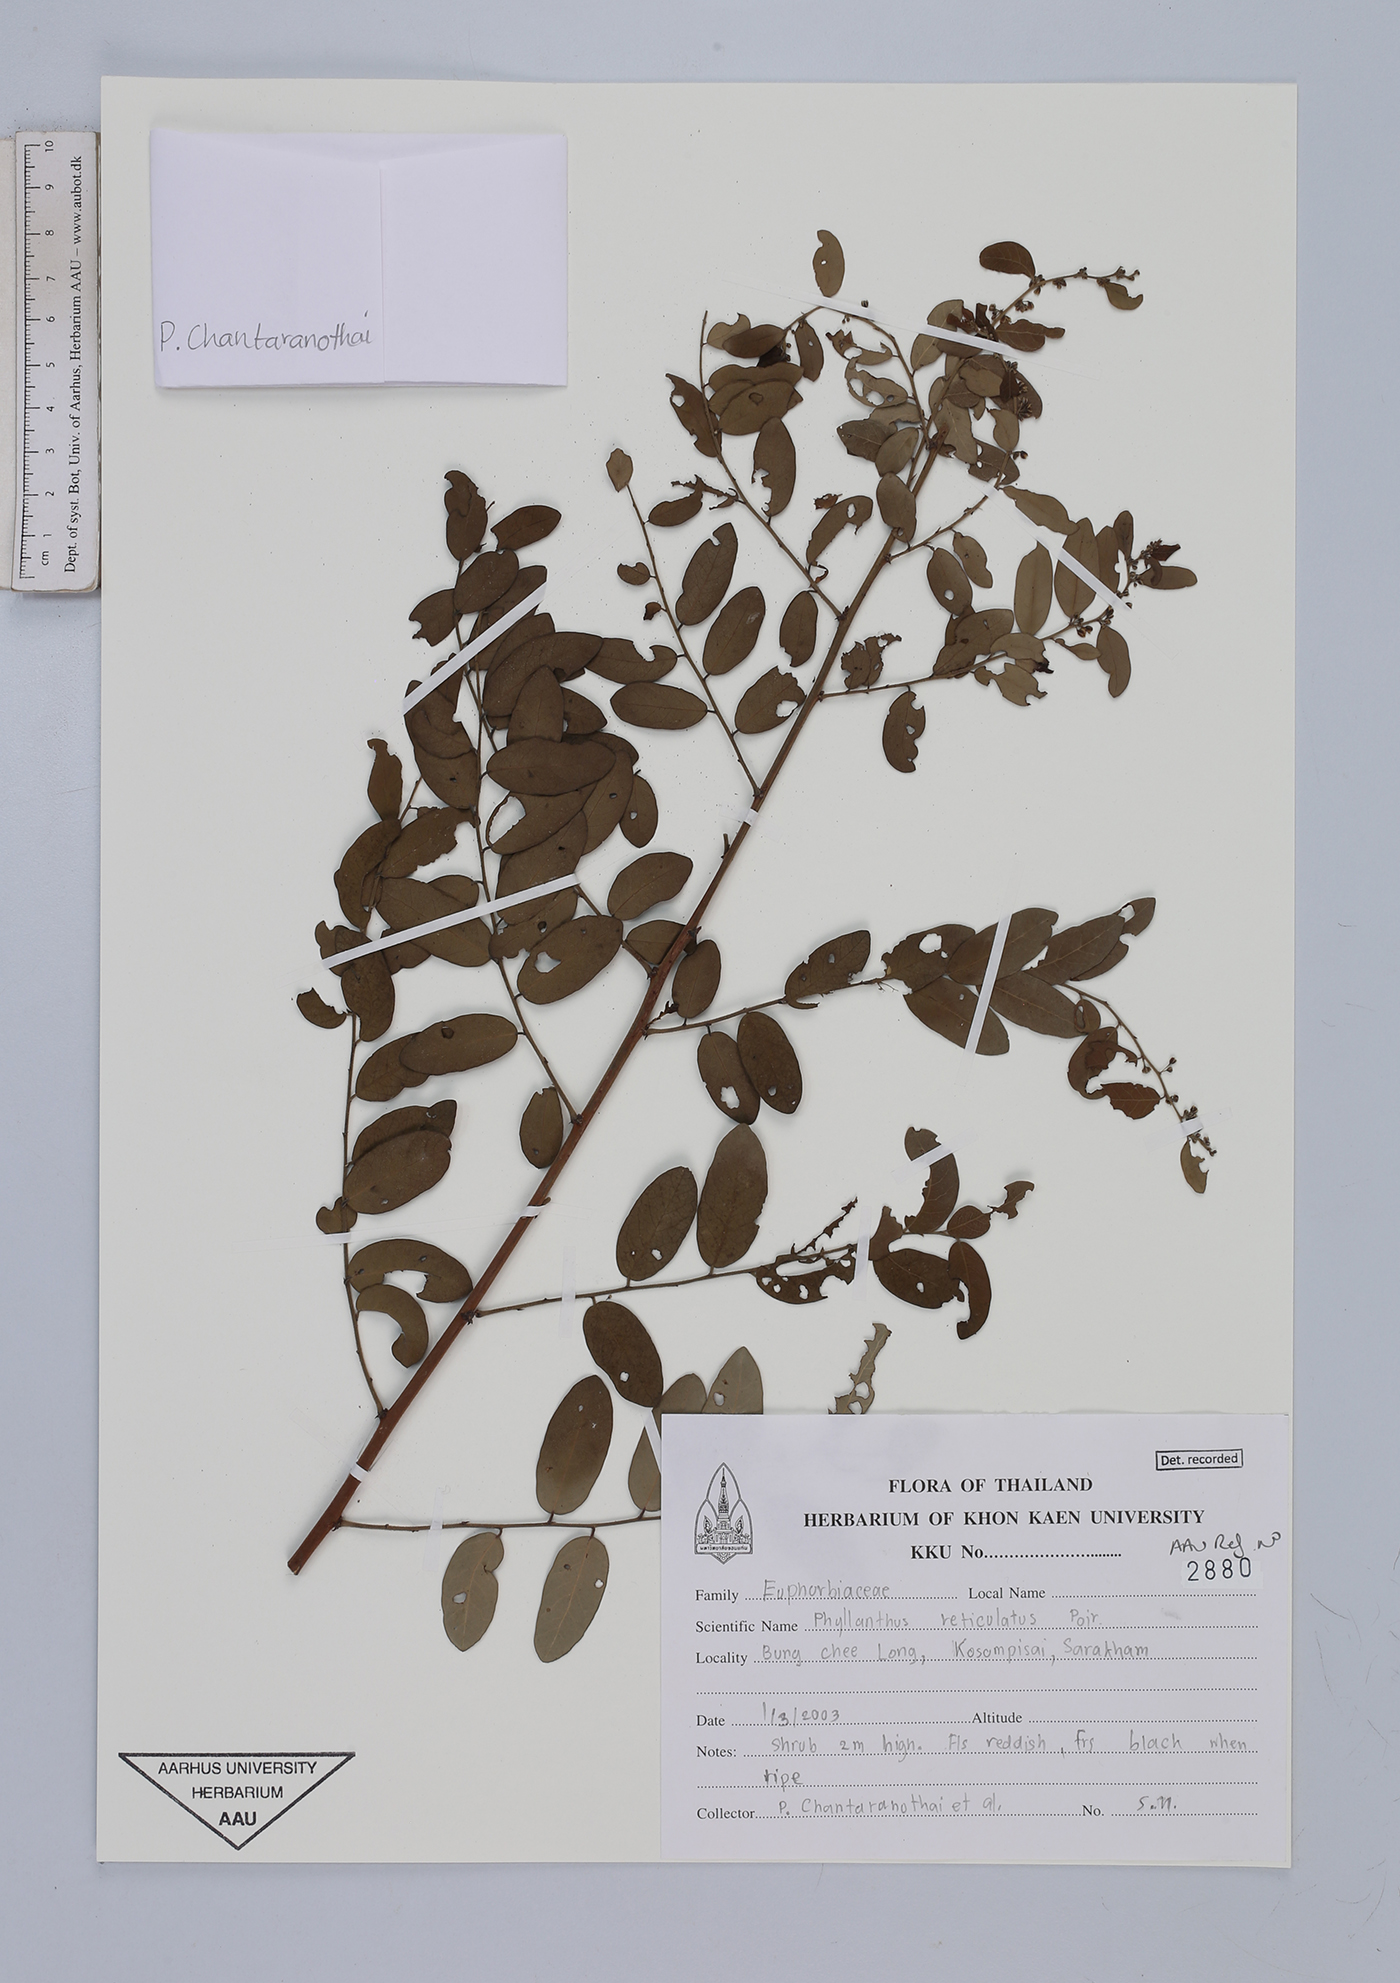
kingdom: Plantae
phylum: Tracheophyta
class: Magnoliopsida
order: Malpighiales
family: Phyllanthaceae
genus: Phyllanthus
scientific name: Phyllanthus reticulatus
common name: Potato bush
